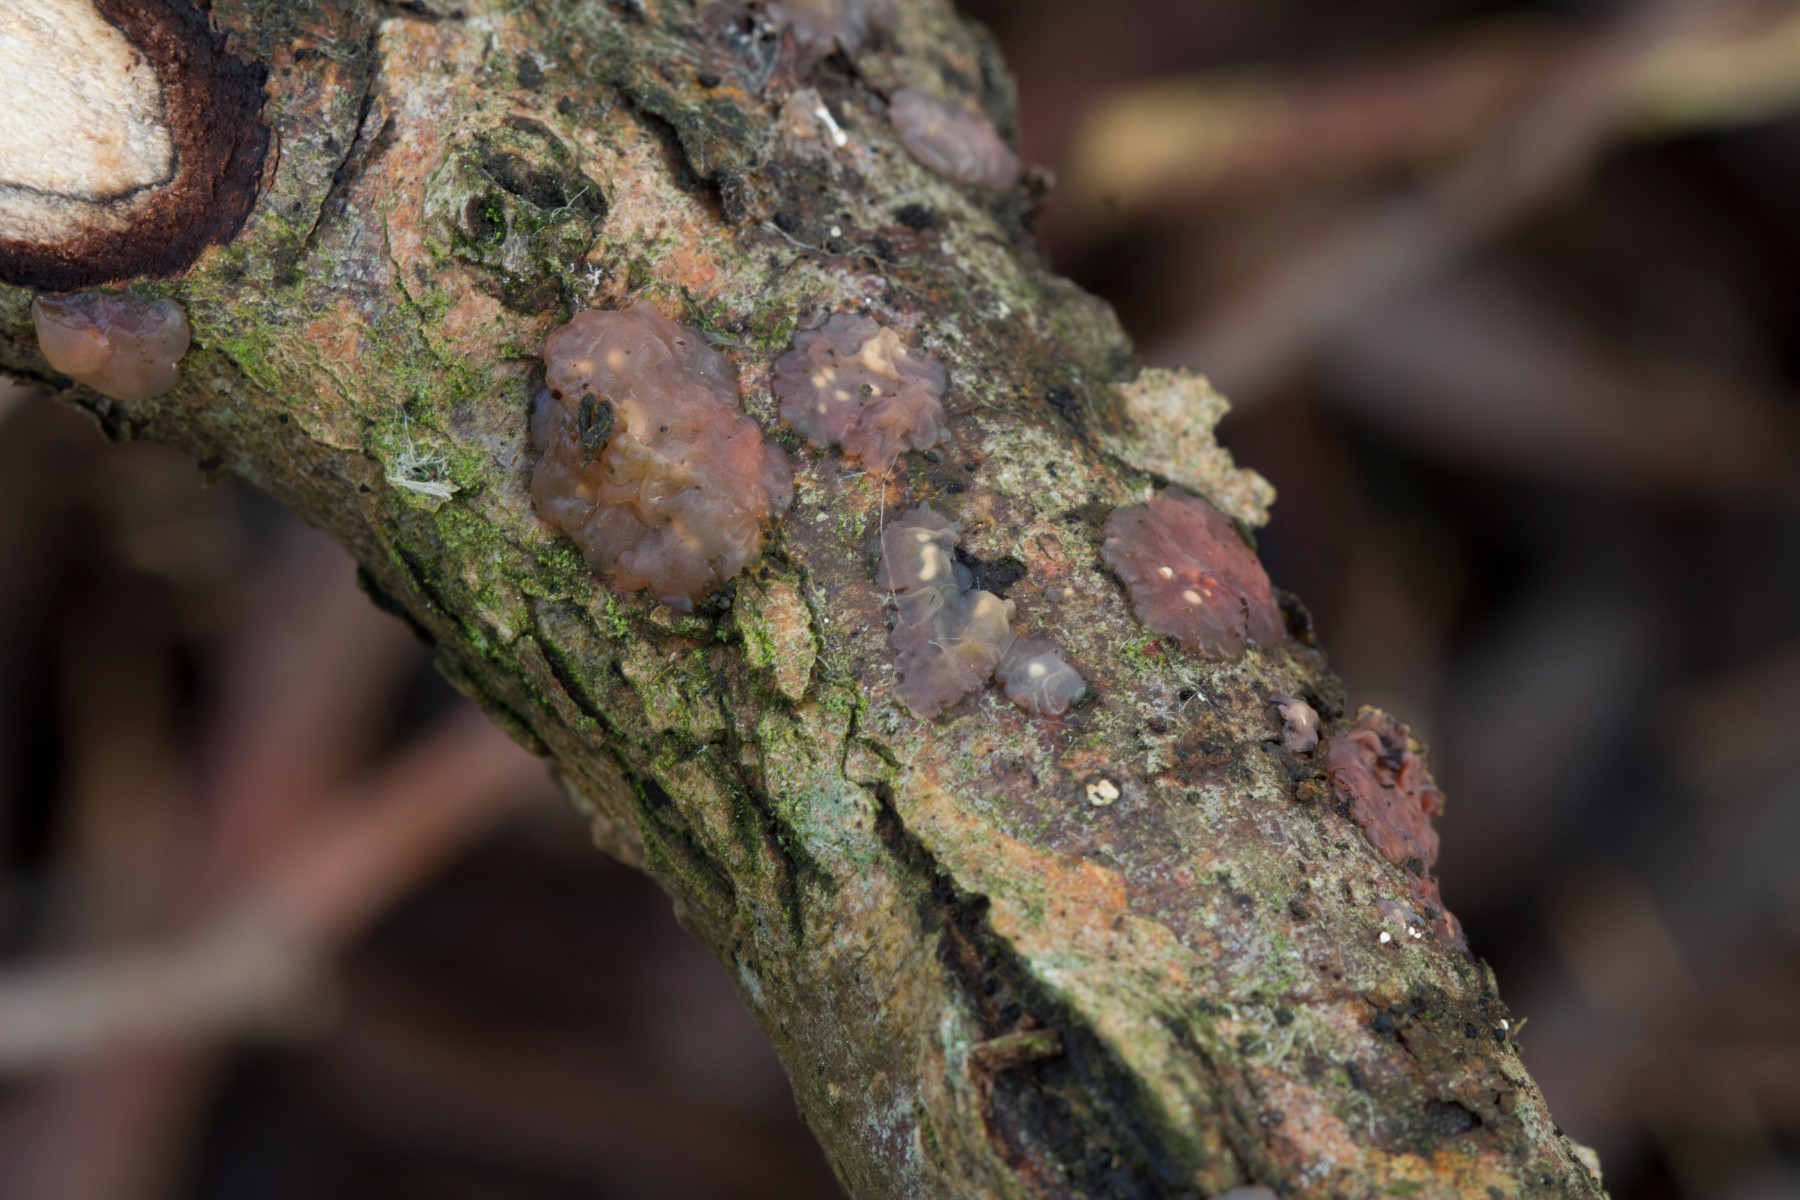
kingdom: Fungi
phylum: Basidiomycota
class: Agaricomycetes
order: Auriculariales
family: Hyaloriaceae
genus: Myxarium
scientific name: Myxarium hyalinum
